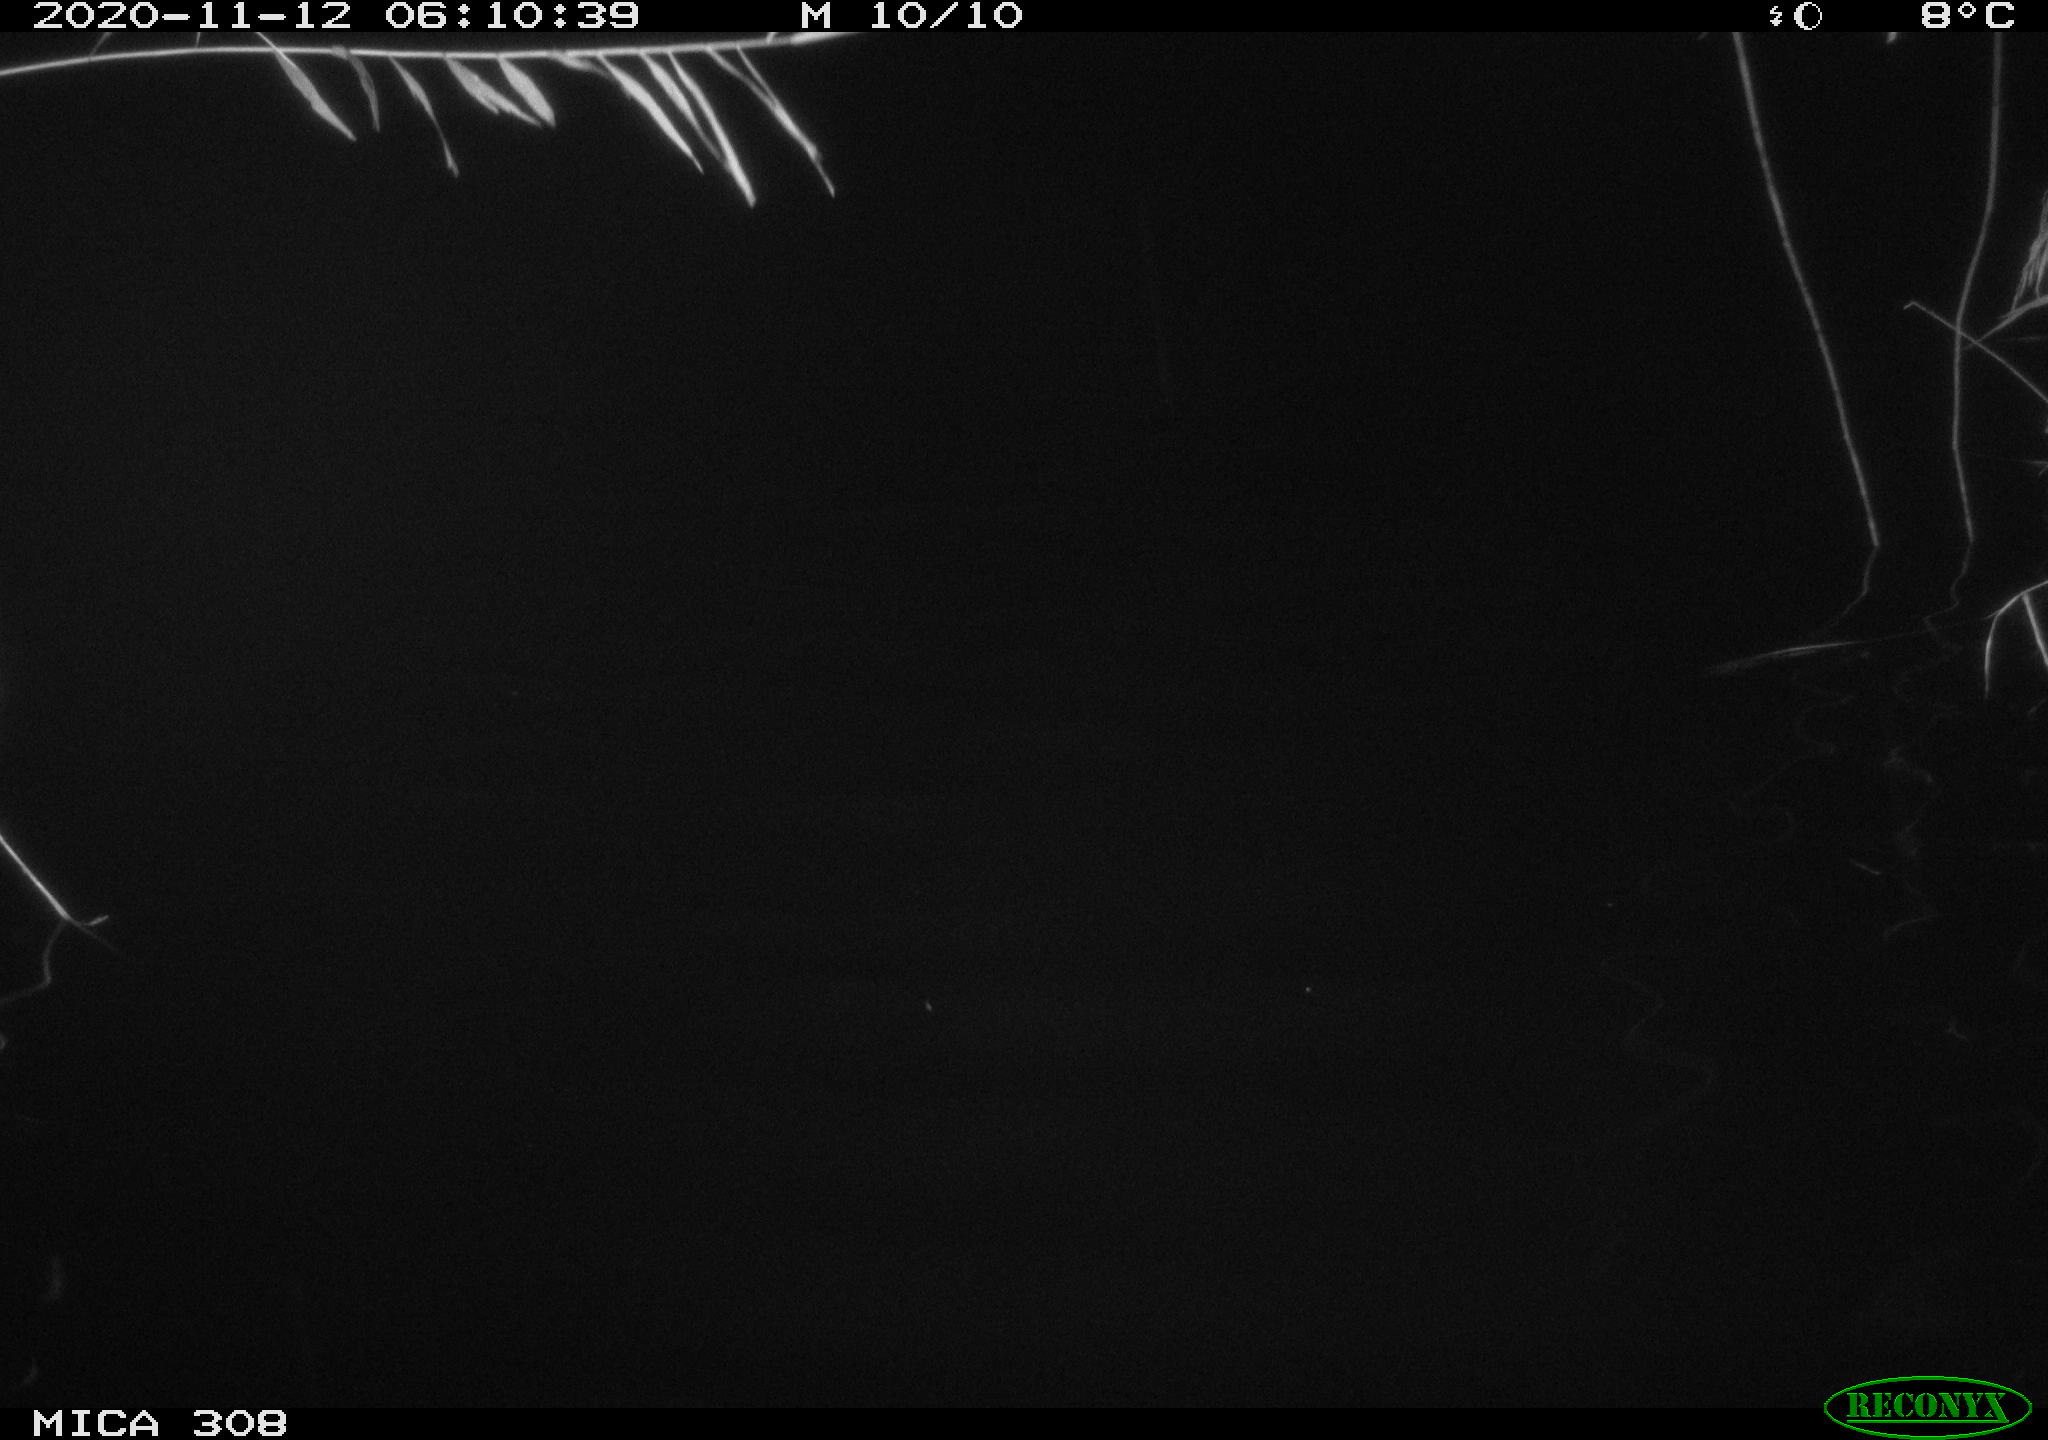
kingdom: Animalia
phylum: Chordata
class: Aves
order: Anseriformes
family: Anatidae
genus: Anas
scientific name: Anas platyrhynchos
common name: Mallard
